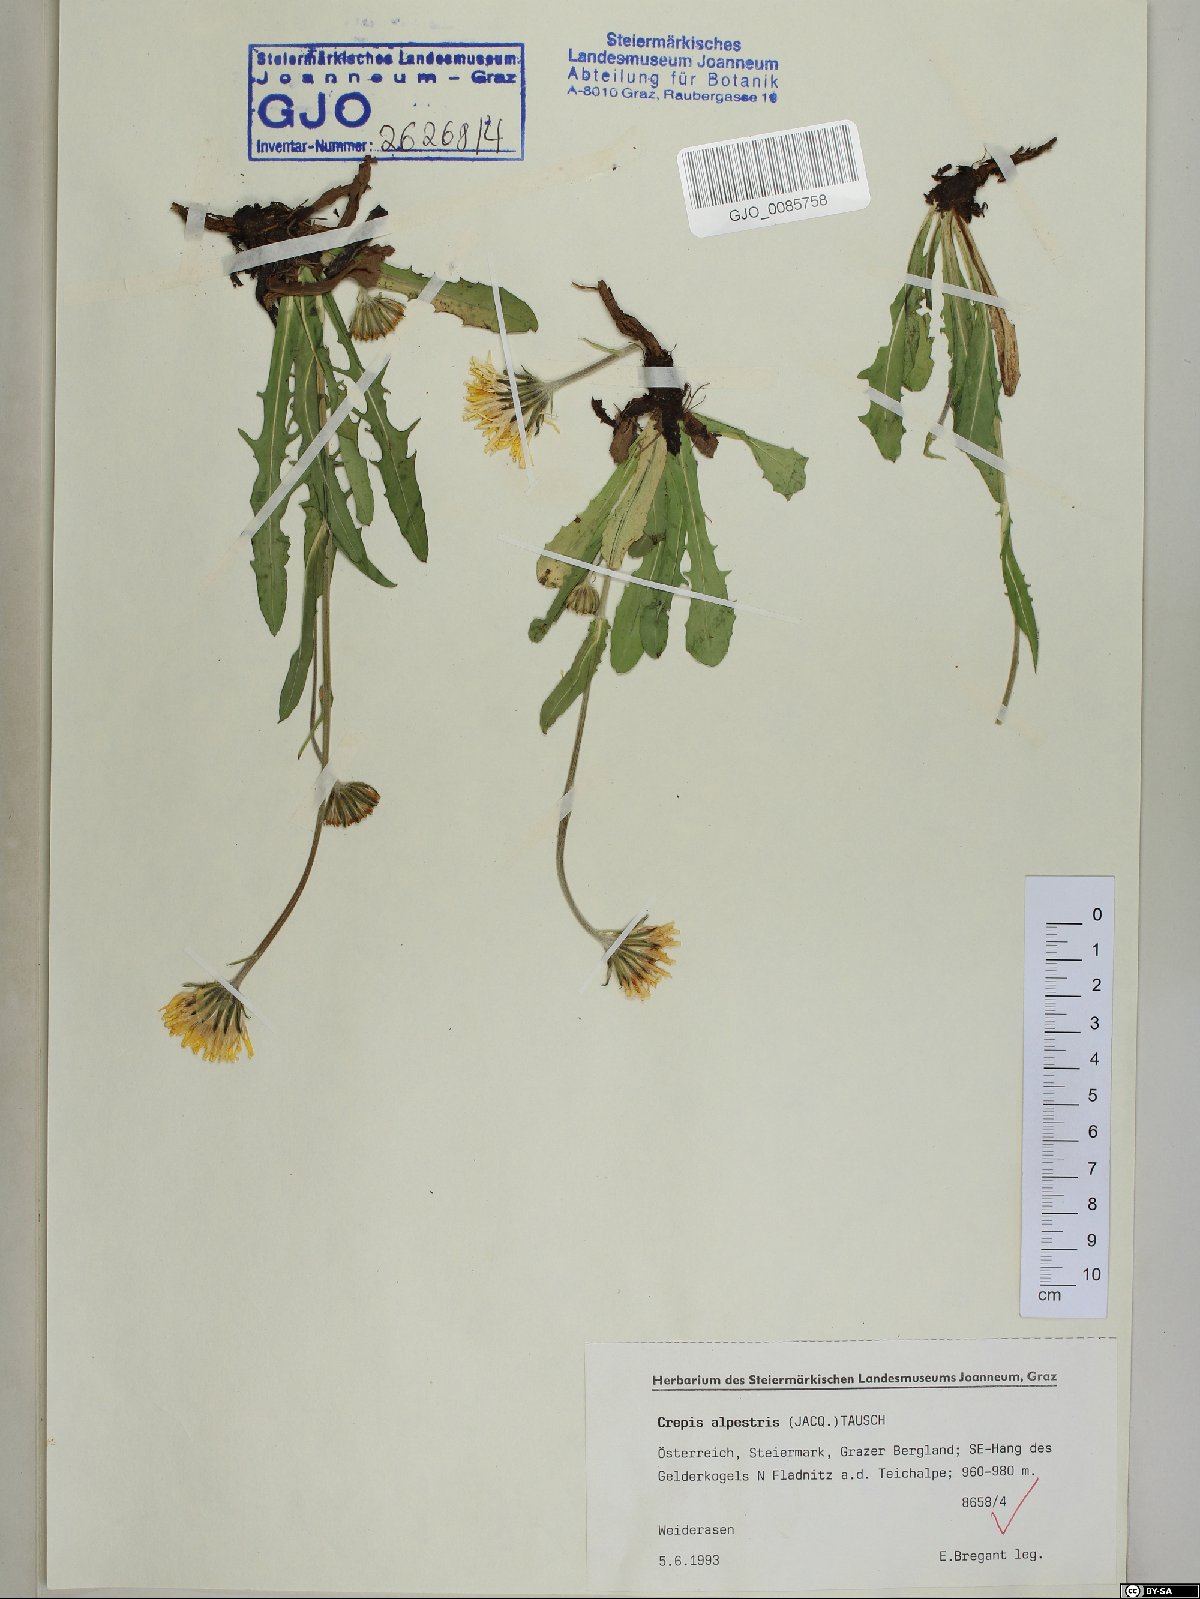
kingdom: Plantae
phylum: Tracheophyta
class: Magnoliopsida
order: Asterales
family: Asteraceae
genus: Crepis
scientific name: Crepis alpestris
